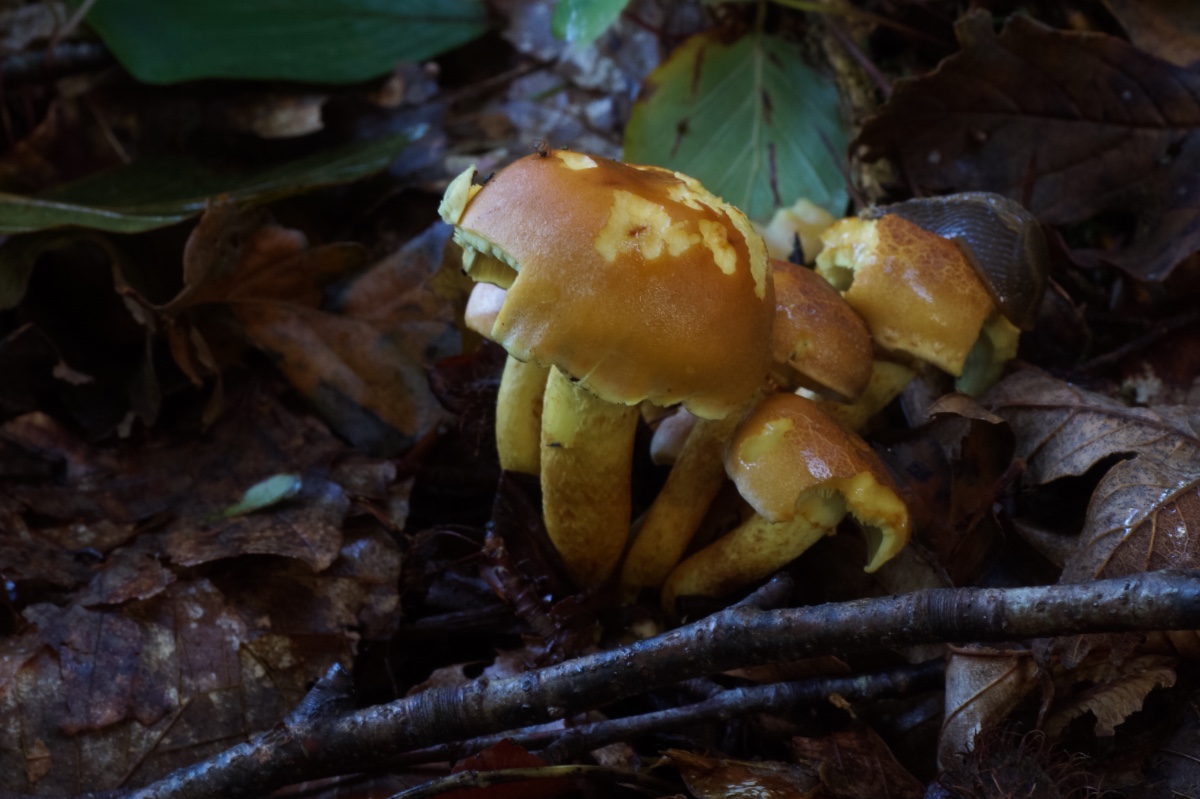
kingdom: Fungi
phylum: Basidiomycota
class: Agaricomycetes
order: Agaricales
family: Strophariaceae
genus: Hypholoma
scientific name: Hypholoma fasciculare
